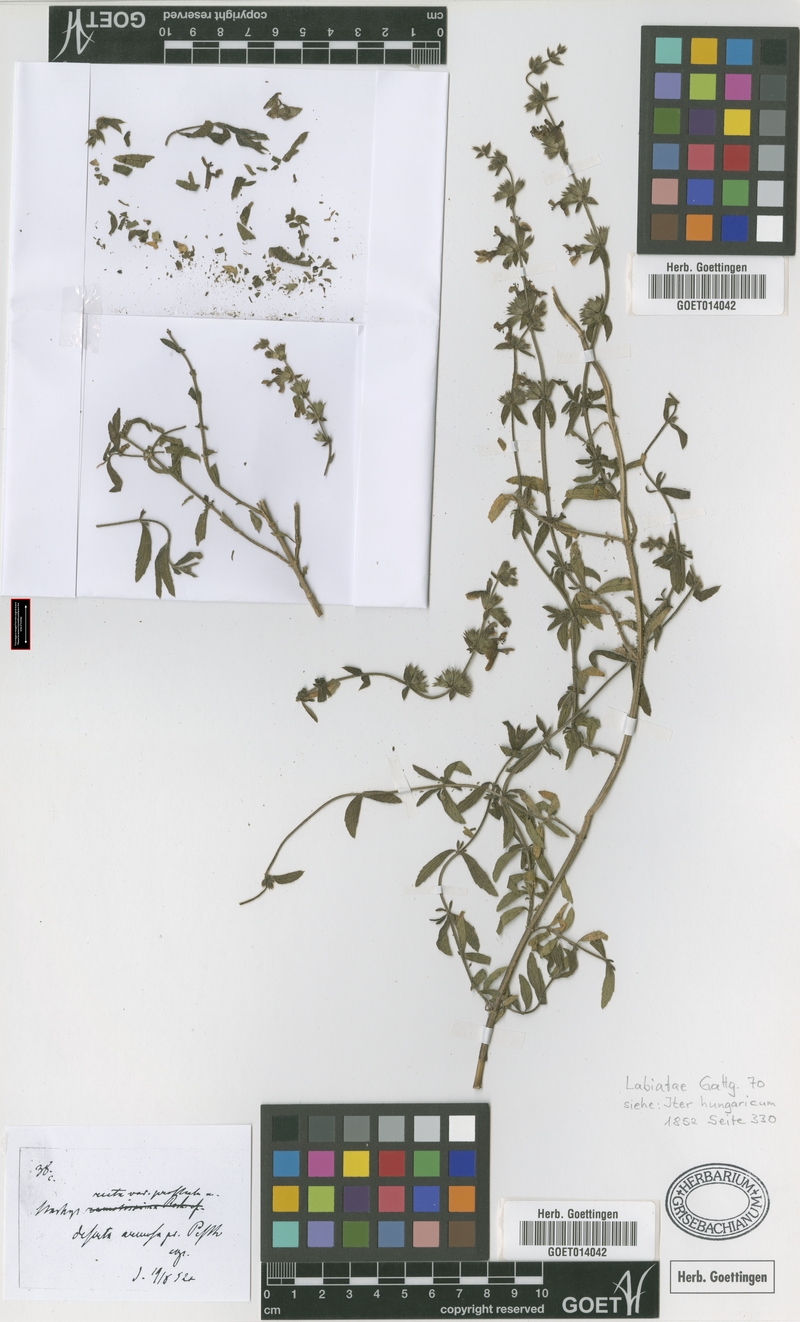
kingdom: Plantae
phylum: Tracheophyta
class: Magnoliopsida
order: Lamiales
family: Lamiaceae
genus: Stachys
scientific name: Stachys recta
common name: Perennial yellow-woundwort
